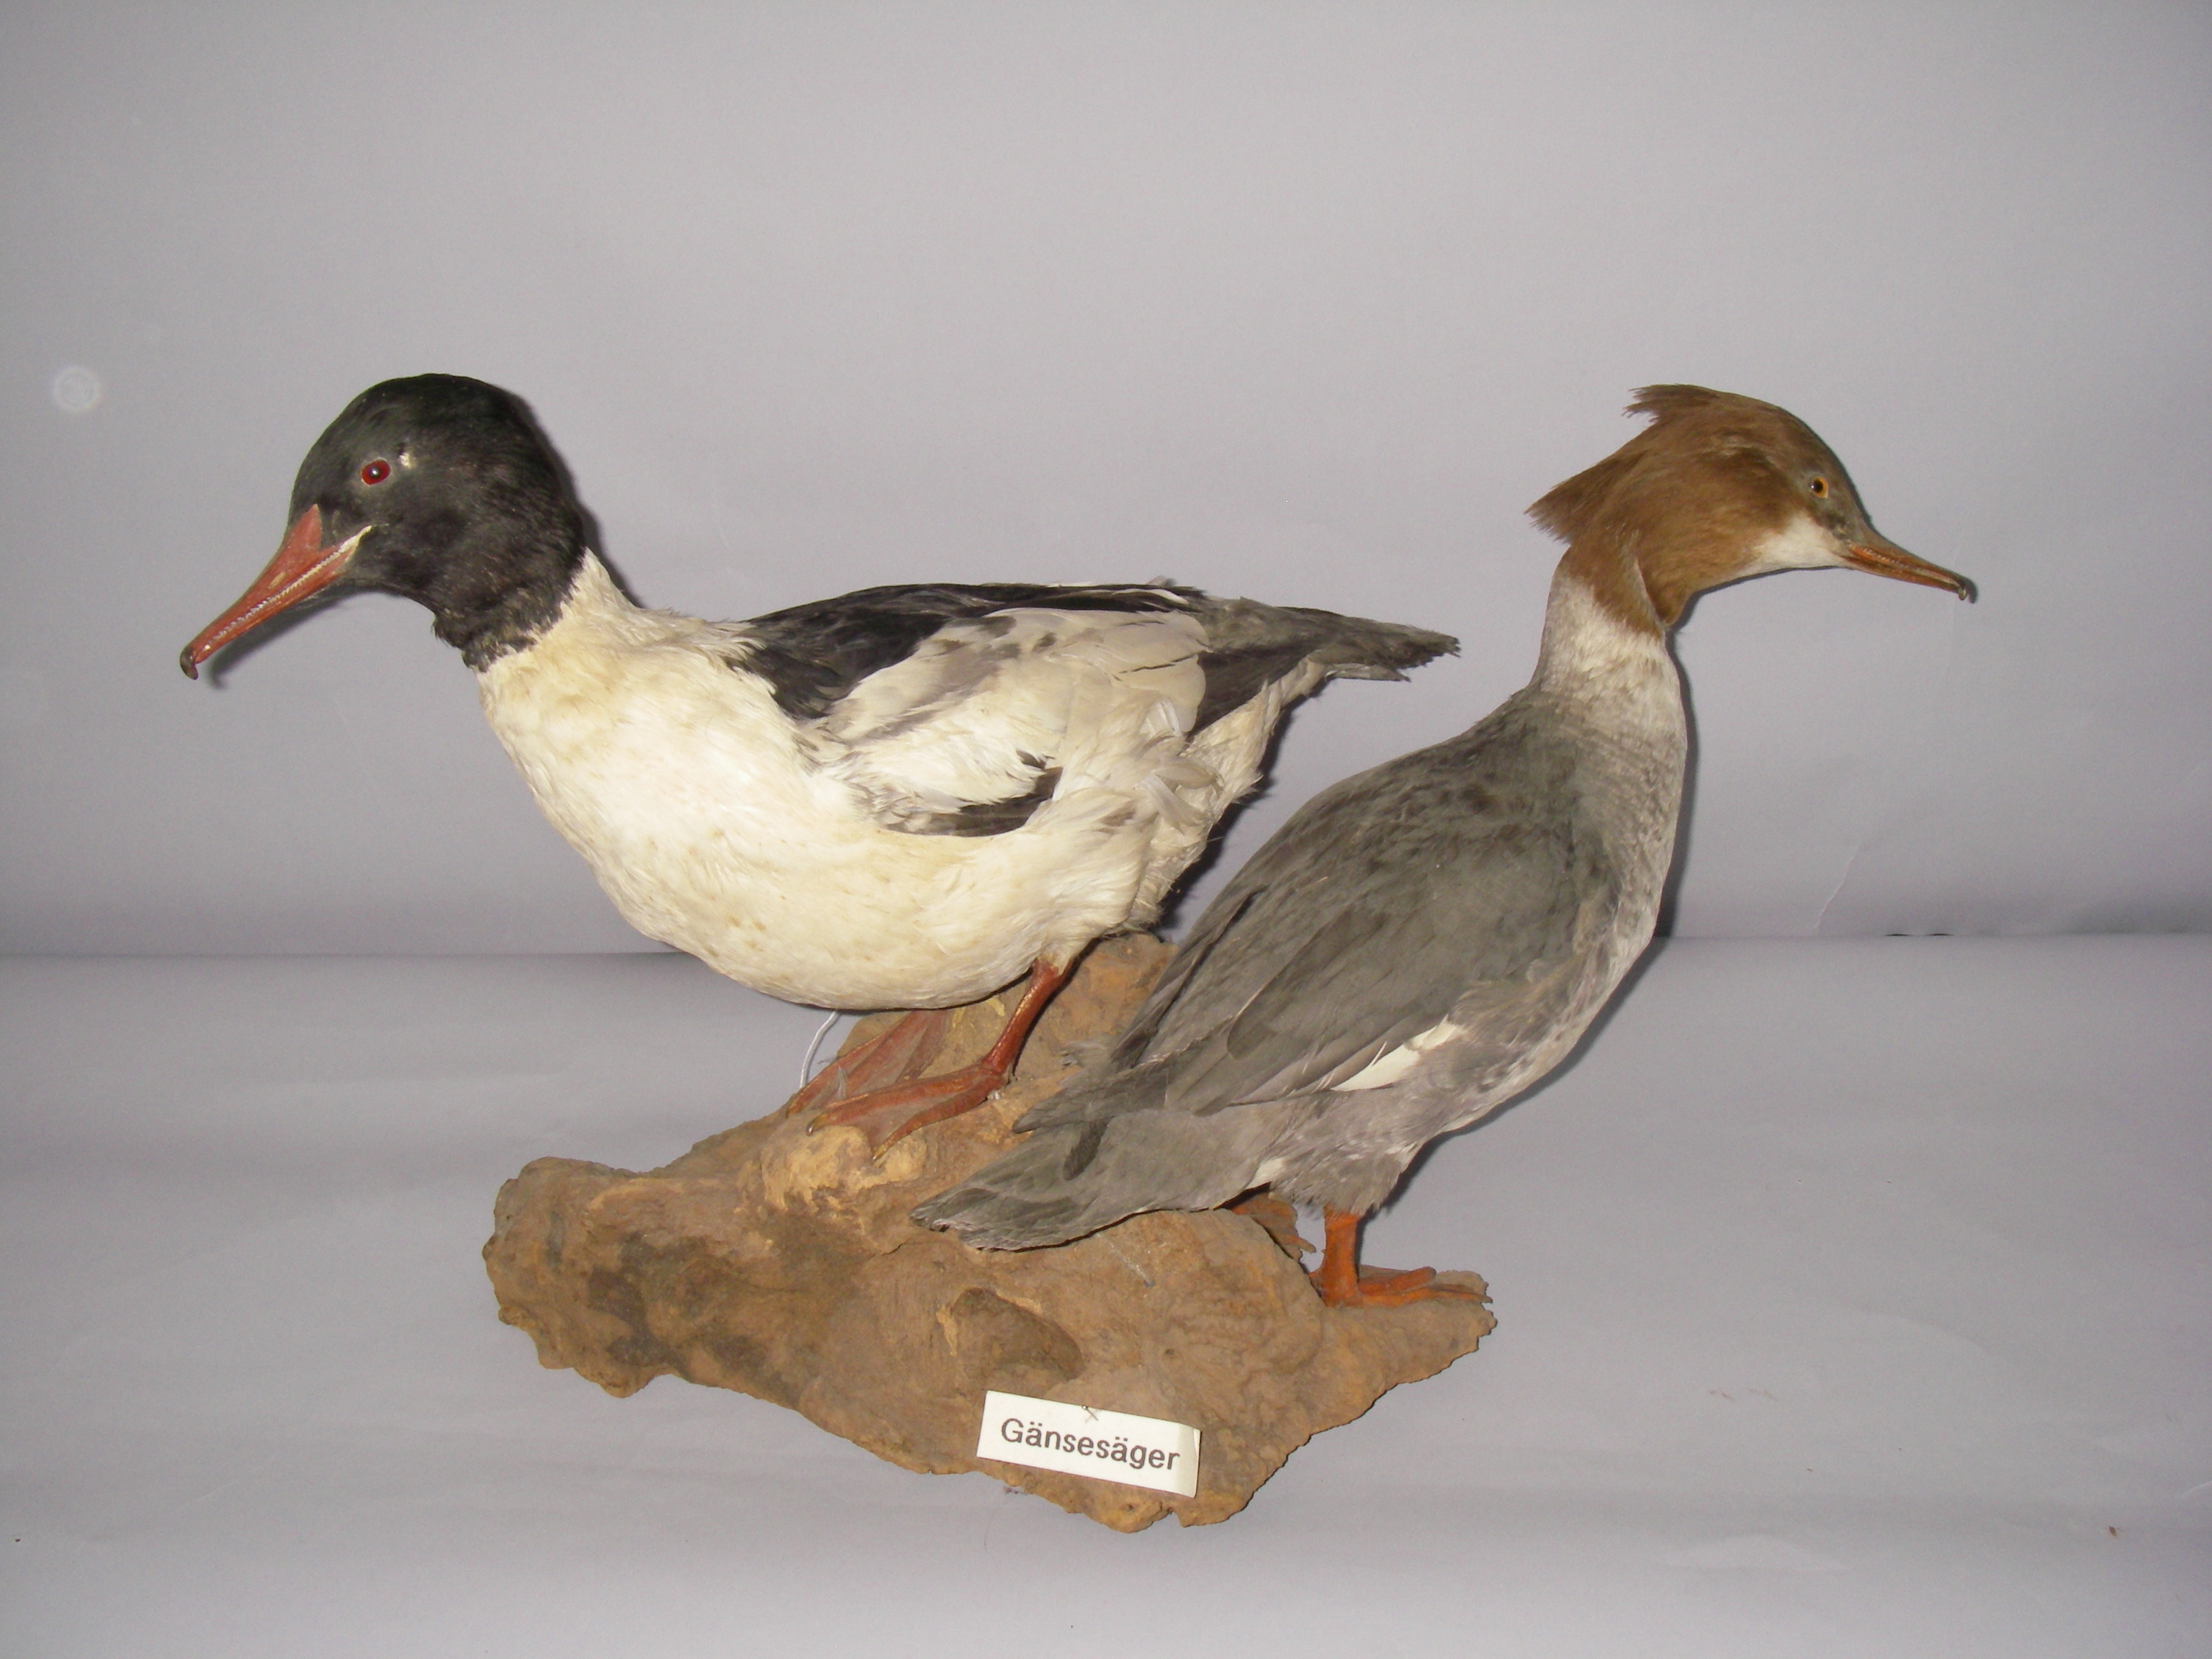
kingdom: Animalia
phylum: Chordata
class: Aves
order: Anseriformes
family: Anatidae
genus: Mergus
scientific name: Mergus merganser
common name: Common merganser
